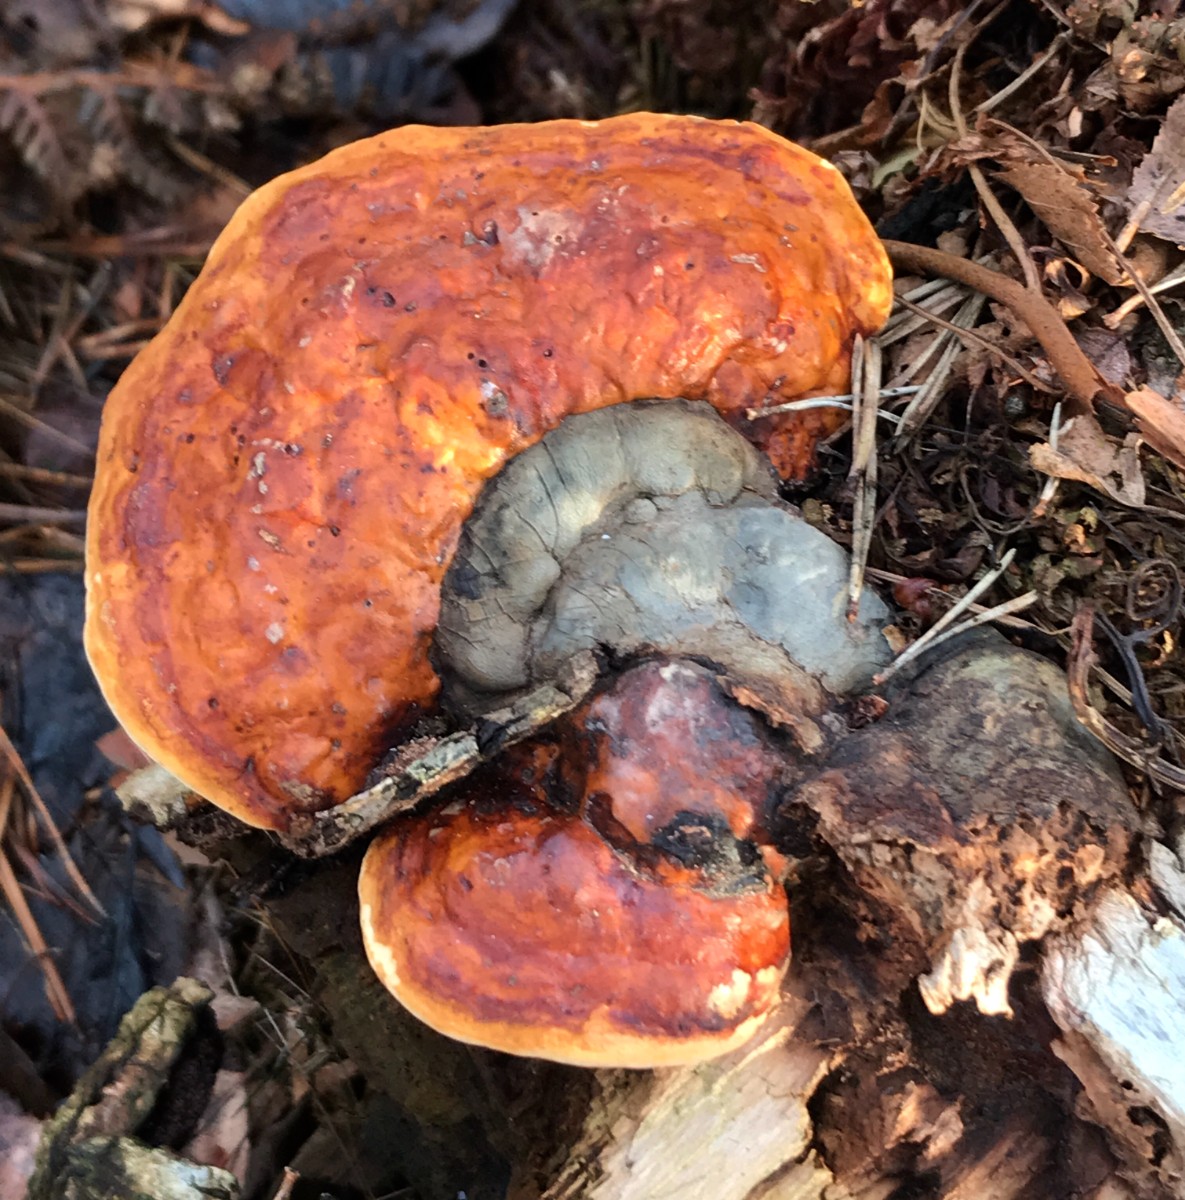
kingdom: Fungi
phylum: Basidiomycota
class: Agaricomycetes
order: Polyporales
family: Fomitopsidaceae
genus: Fomitopsis
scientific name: Fomitopsis pinicola
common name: randbæltet hovporesvamp
